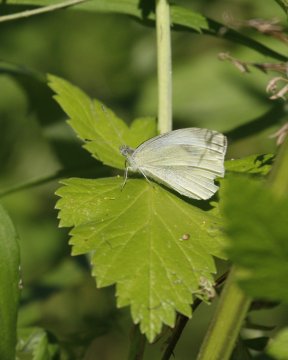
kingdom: Animalia
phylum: Arthropoda
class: Insecta
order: Lepidoptera
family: Pieridae
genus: Pieris
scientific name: Pieris rapae
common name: Cabbage White
